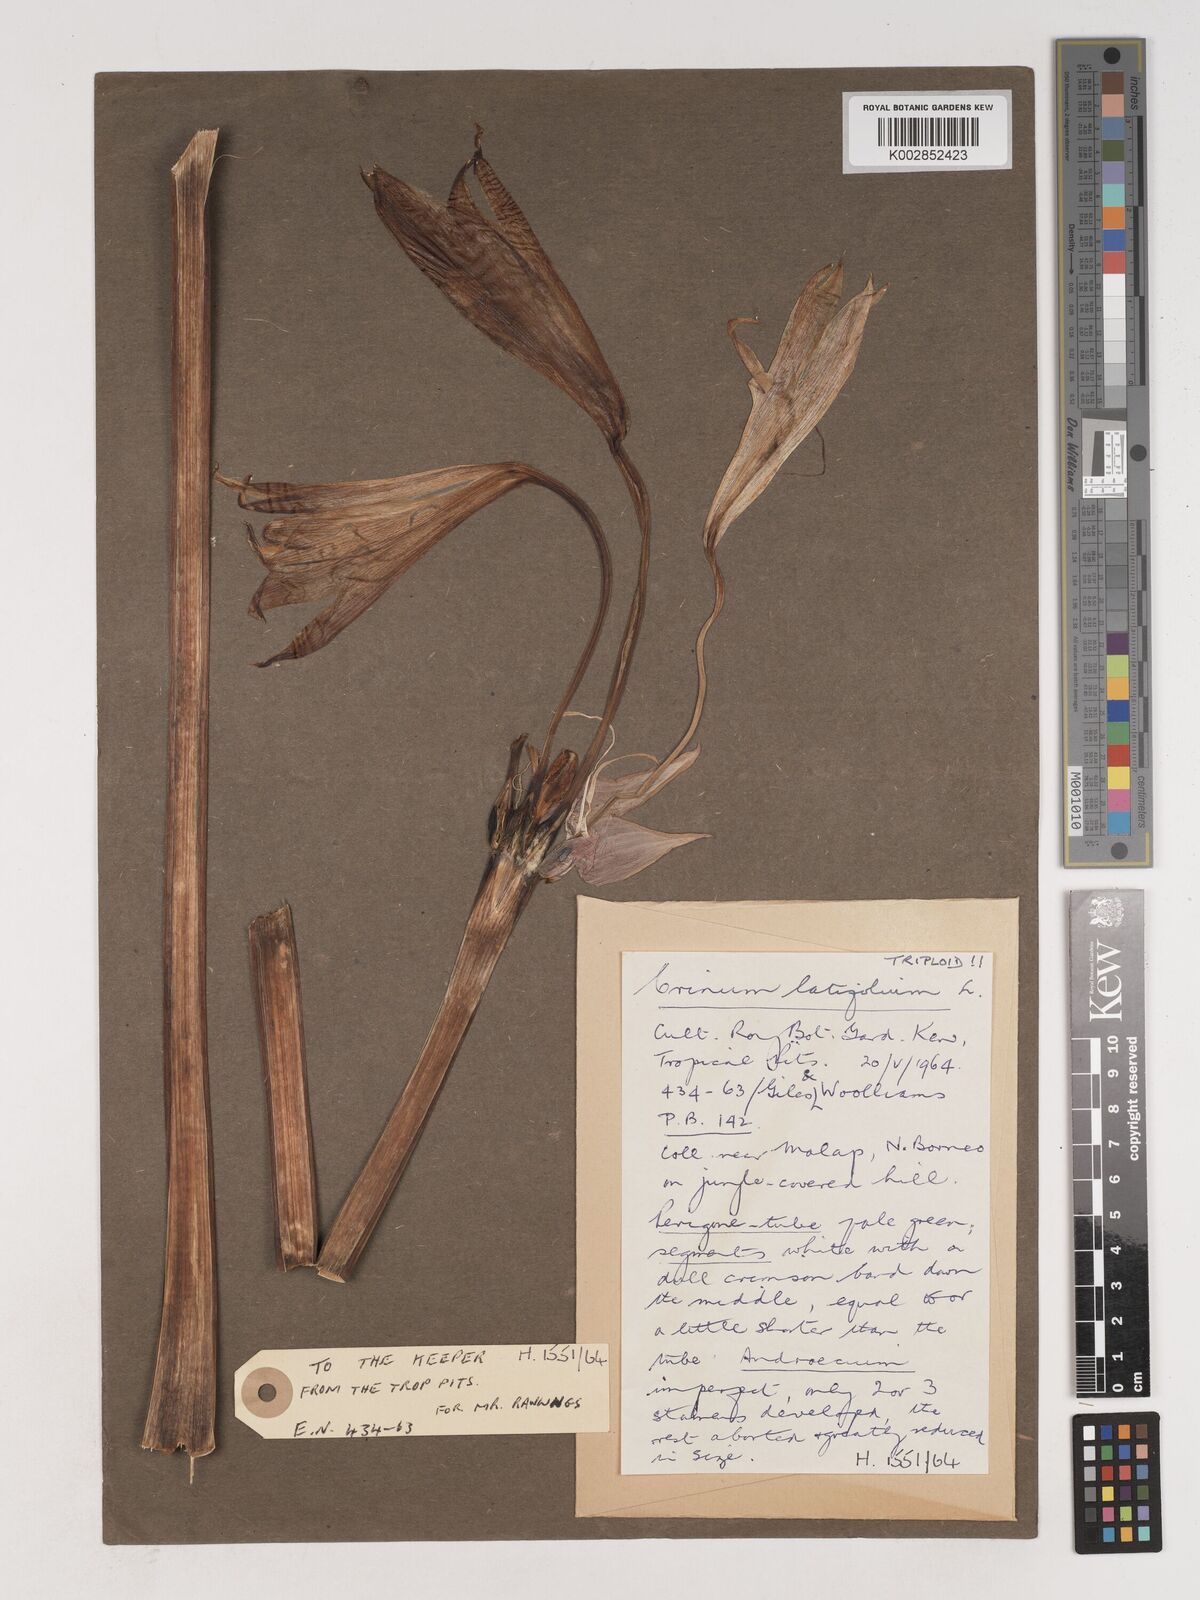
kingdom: Plantae
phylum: Tracheophyta
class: Liliopsida
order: Asparagales
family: Amaryllidaceae
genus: Crinum
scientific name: Crinum latifolium
